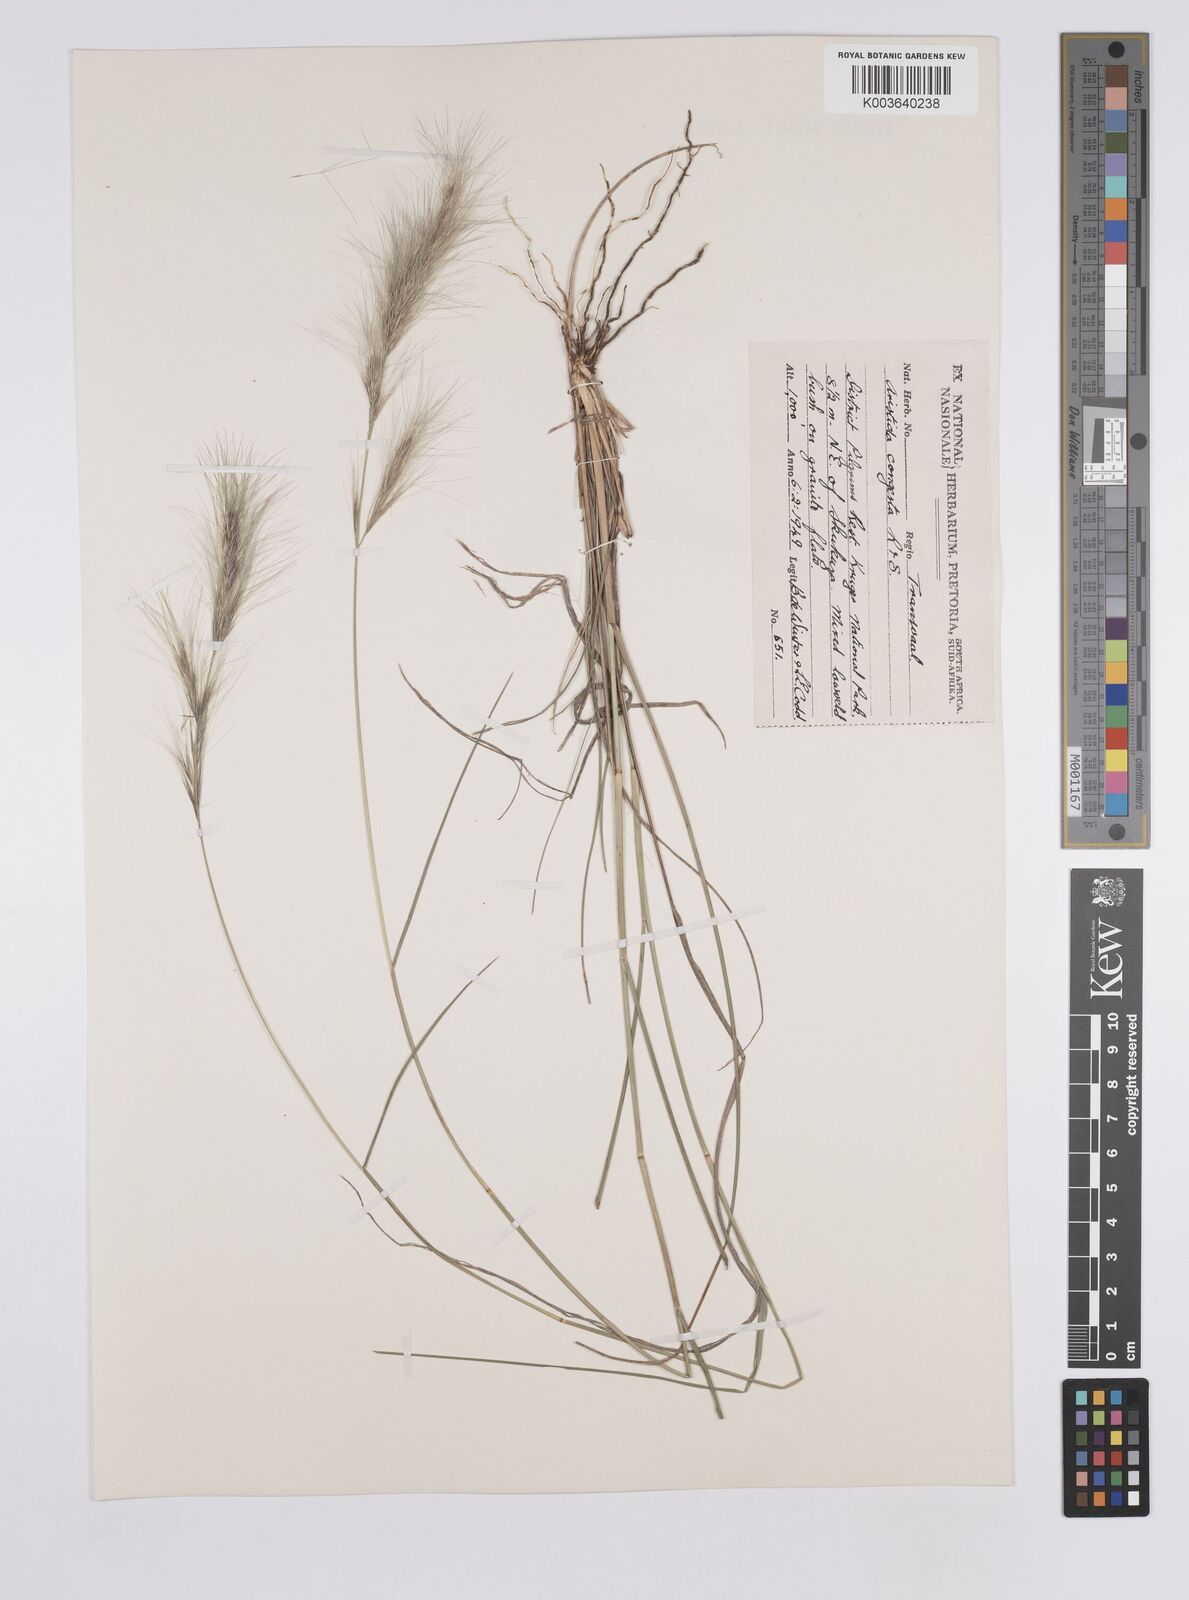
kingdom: Plantae
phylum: Tracheophyta
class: Liliopsida
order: Poales
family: Poaceae
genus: Aristida
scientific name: Aristida congesta
